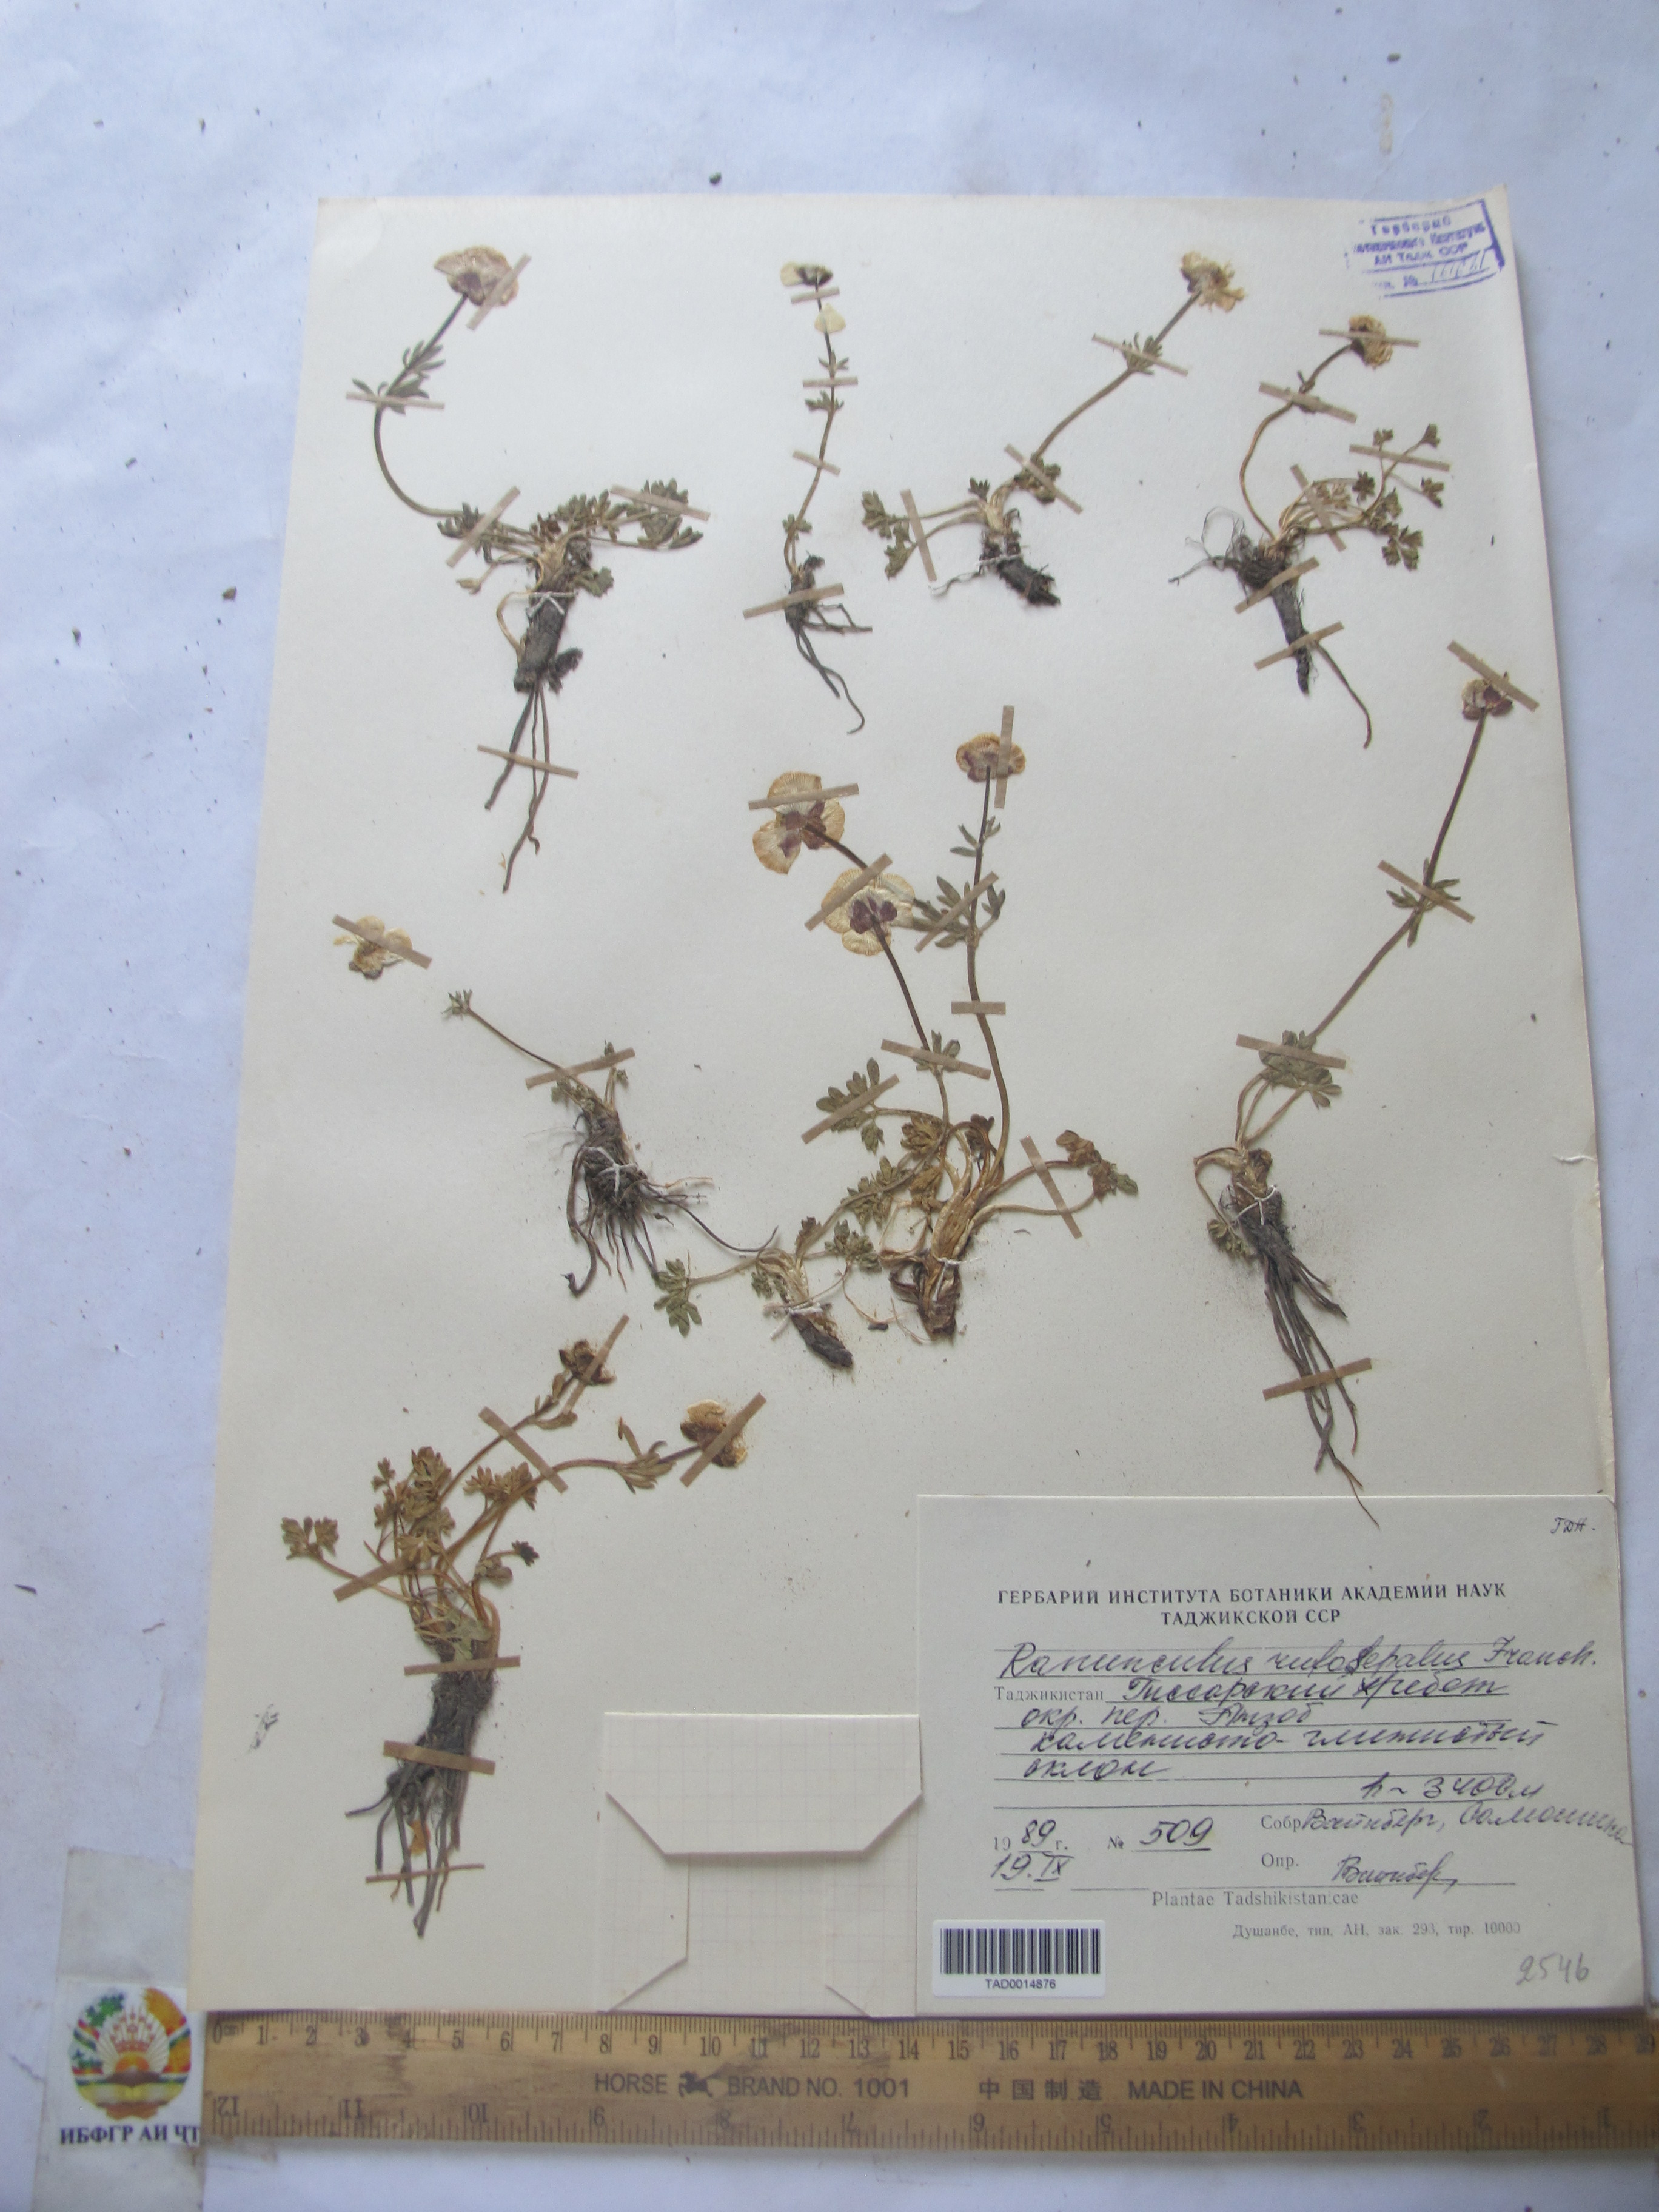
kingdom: Plantae
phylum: Tracheophyta
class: Magnoliopsida
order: Ranunculales
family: Ranunculaceae
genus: Ranunculus
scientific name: Ranunculus rufosepalus
